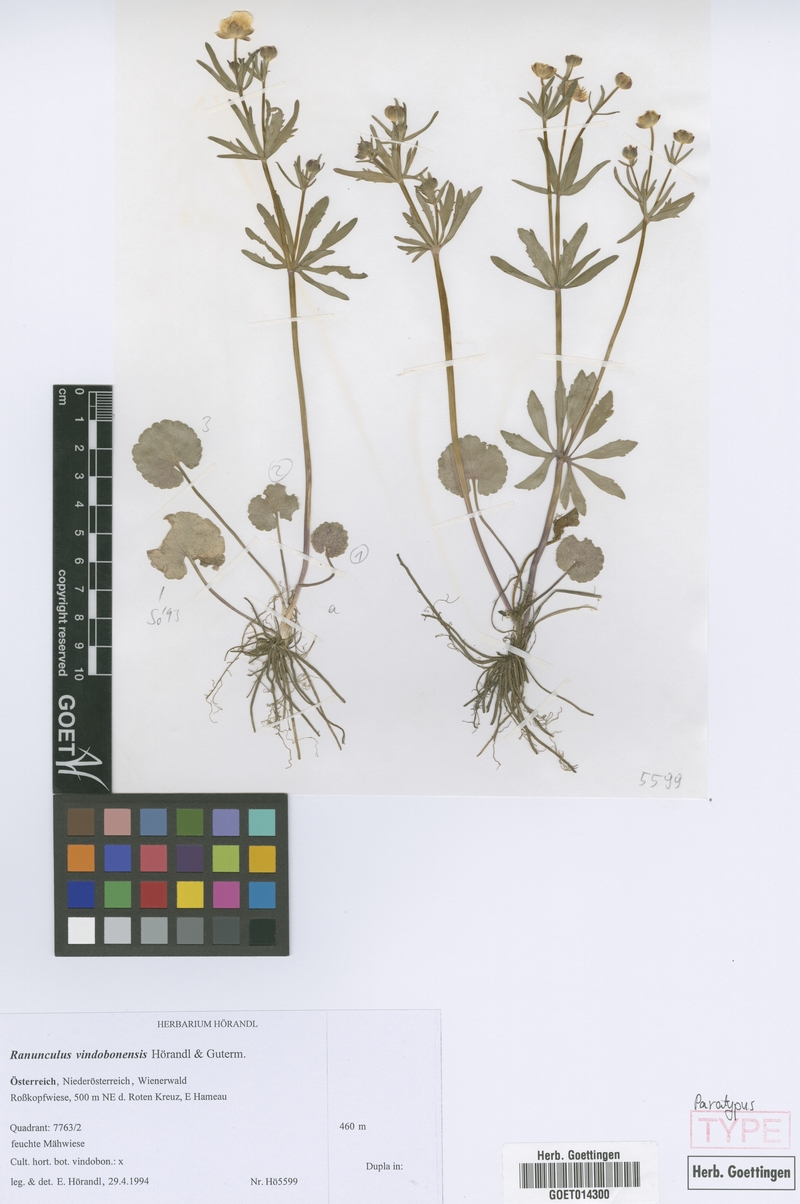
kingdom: Plantae
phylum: Tracheophyta
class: Magnoliopsida
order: Ranunculales
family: Ranunculaceae
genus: Ranunculus
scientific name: Ranunculus vindobonensis
